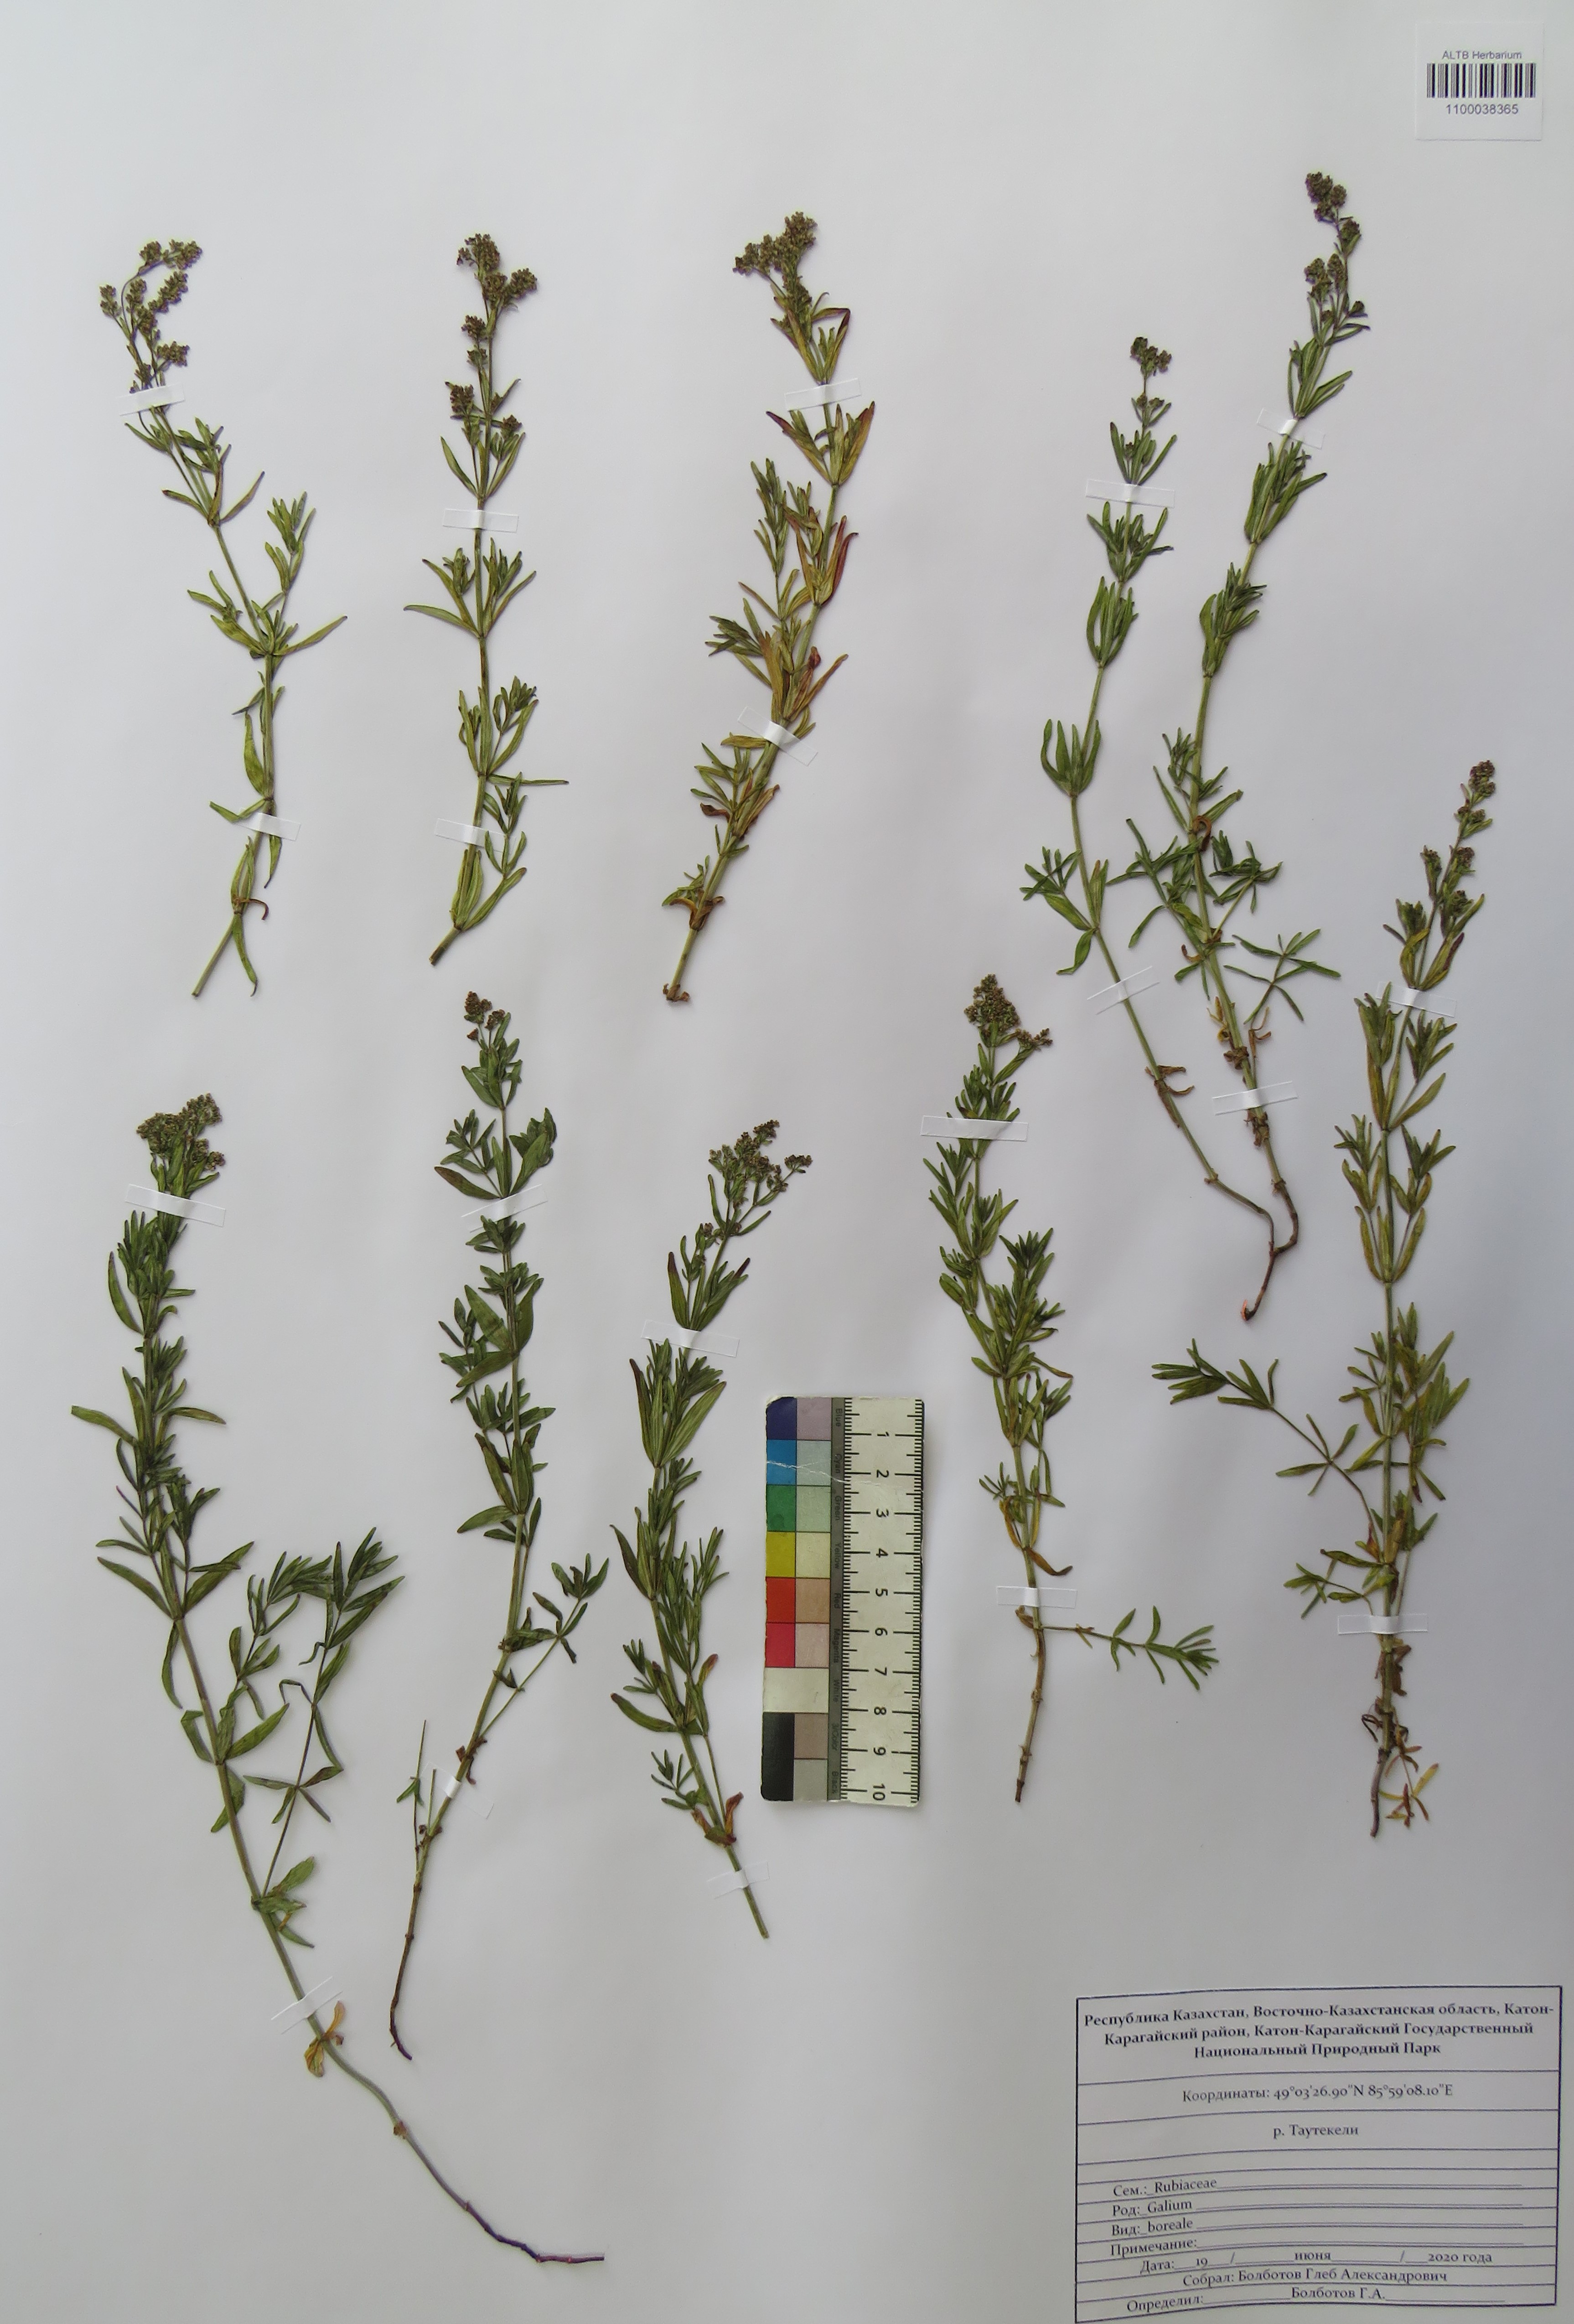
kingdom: Plantae
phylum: Tracheophyta
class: Magnoliopsida
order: Gentianales
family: Rubiaceae
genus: Galium
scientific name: Galium boreale
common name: Northern bedstraw
